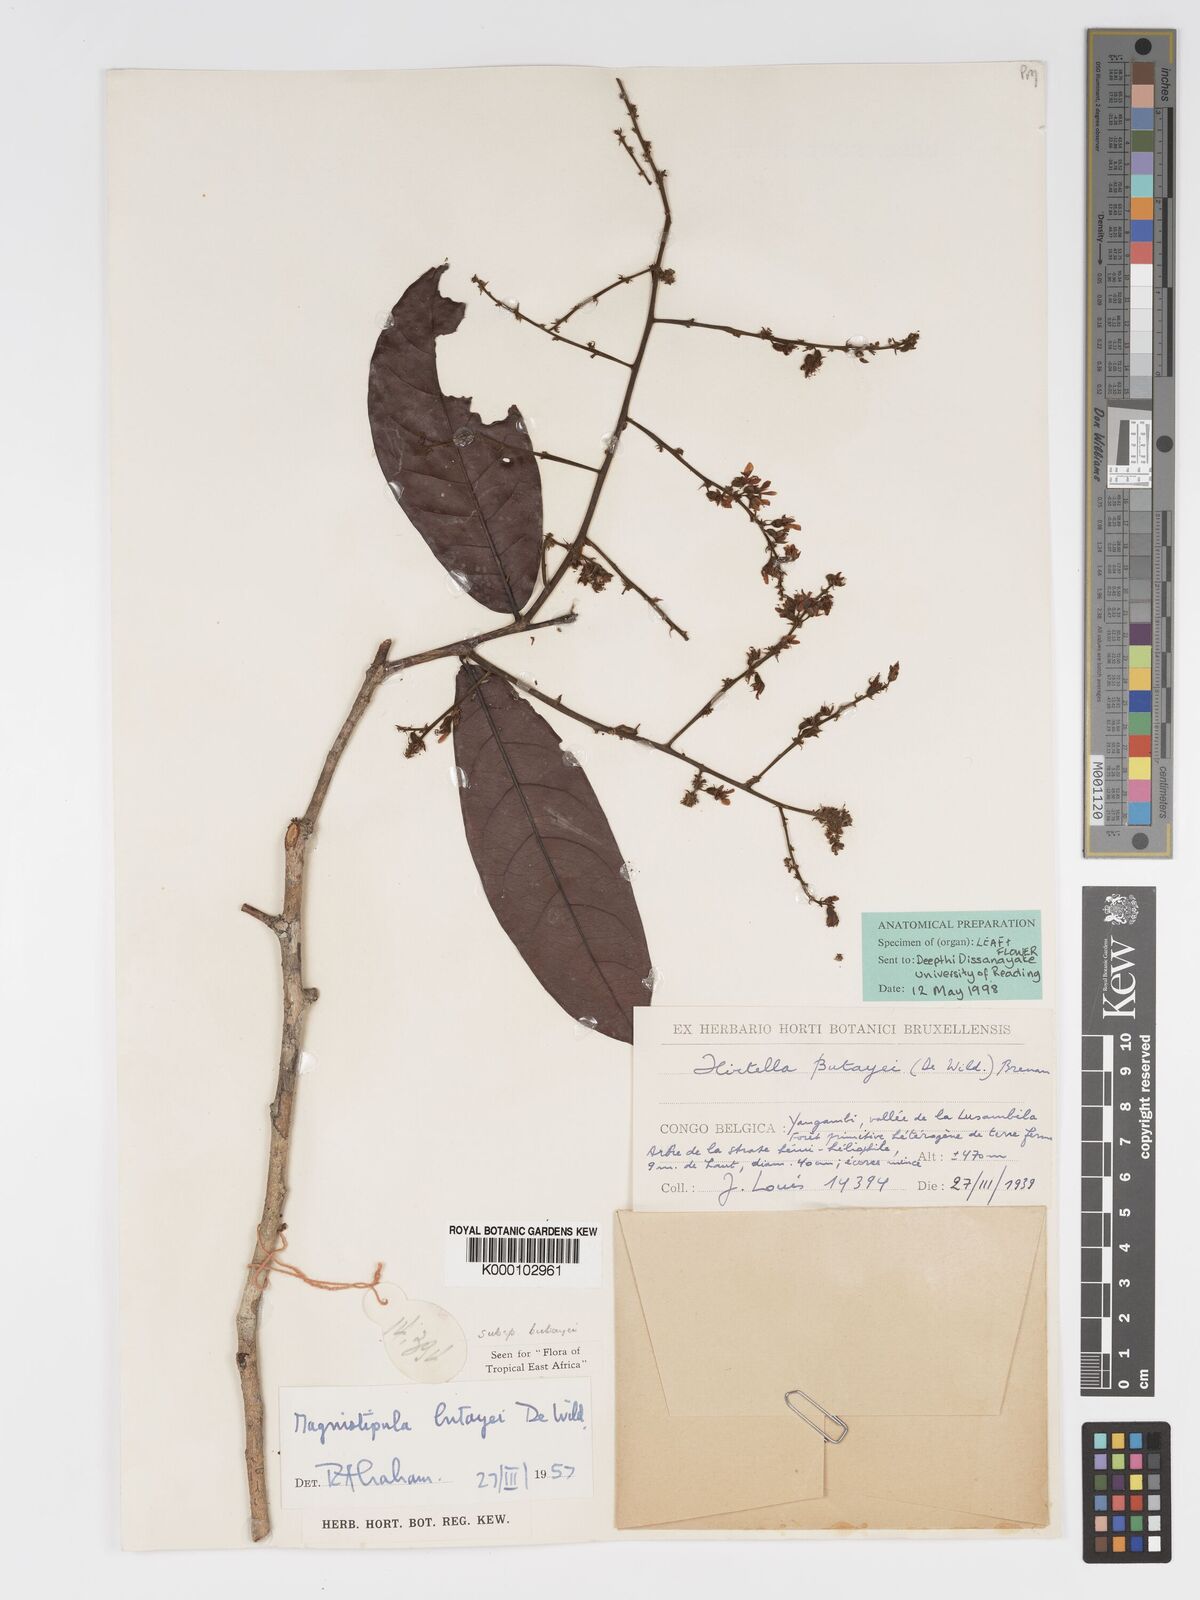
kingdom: Plantae
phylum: Tracheophyta
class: Magnoliopsida
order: Malpighiales
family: Chrysobalanaceae
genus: Magnistipula
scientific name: Magnistipula butayei
